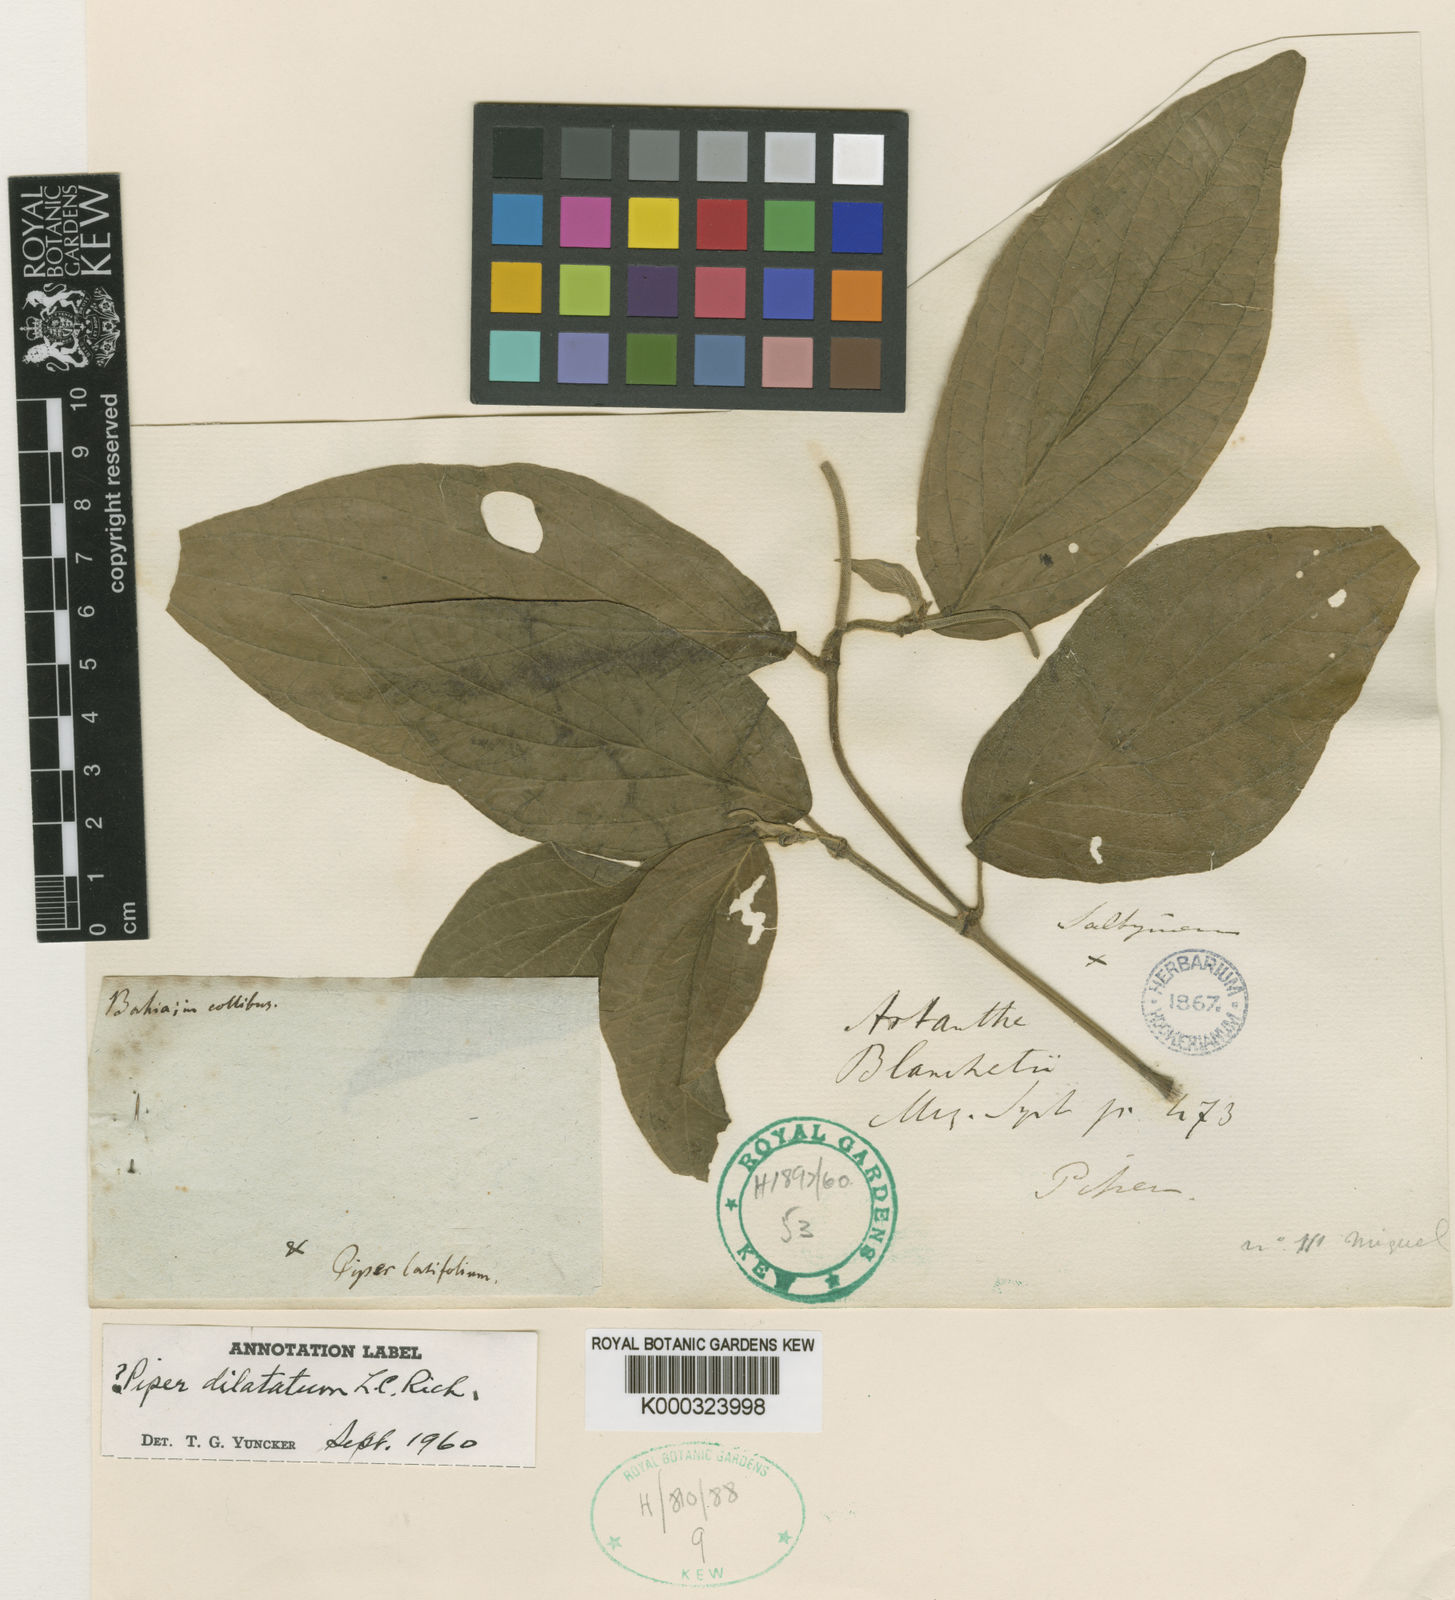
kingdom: Plantae
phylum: Tracheophyta
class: Magnoliopsida
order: Piperales
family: Piperaceae
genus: Piper
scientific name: Piper dilatatum
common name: Higuillo
